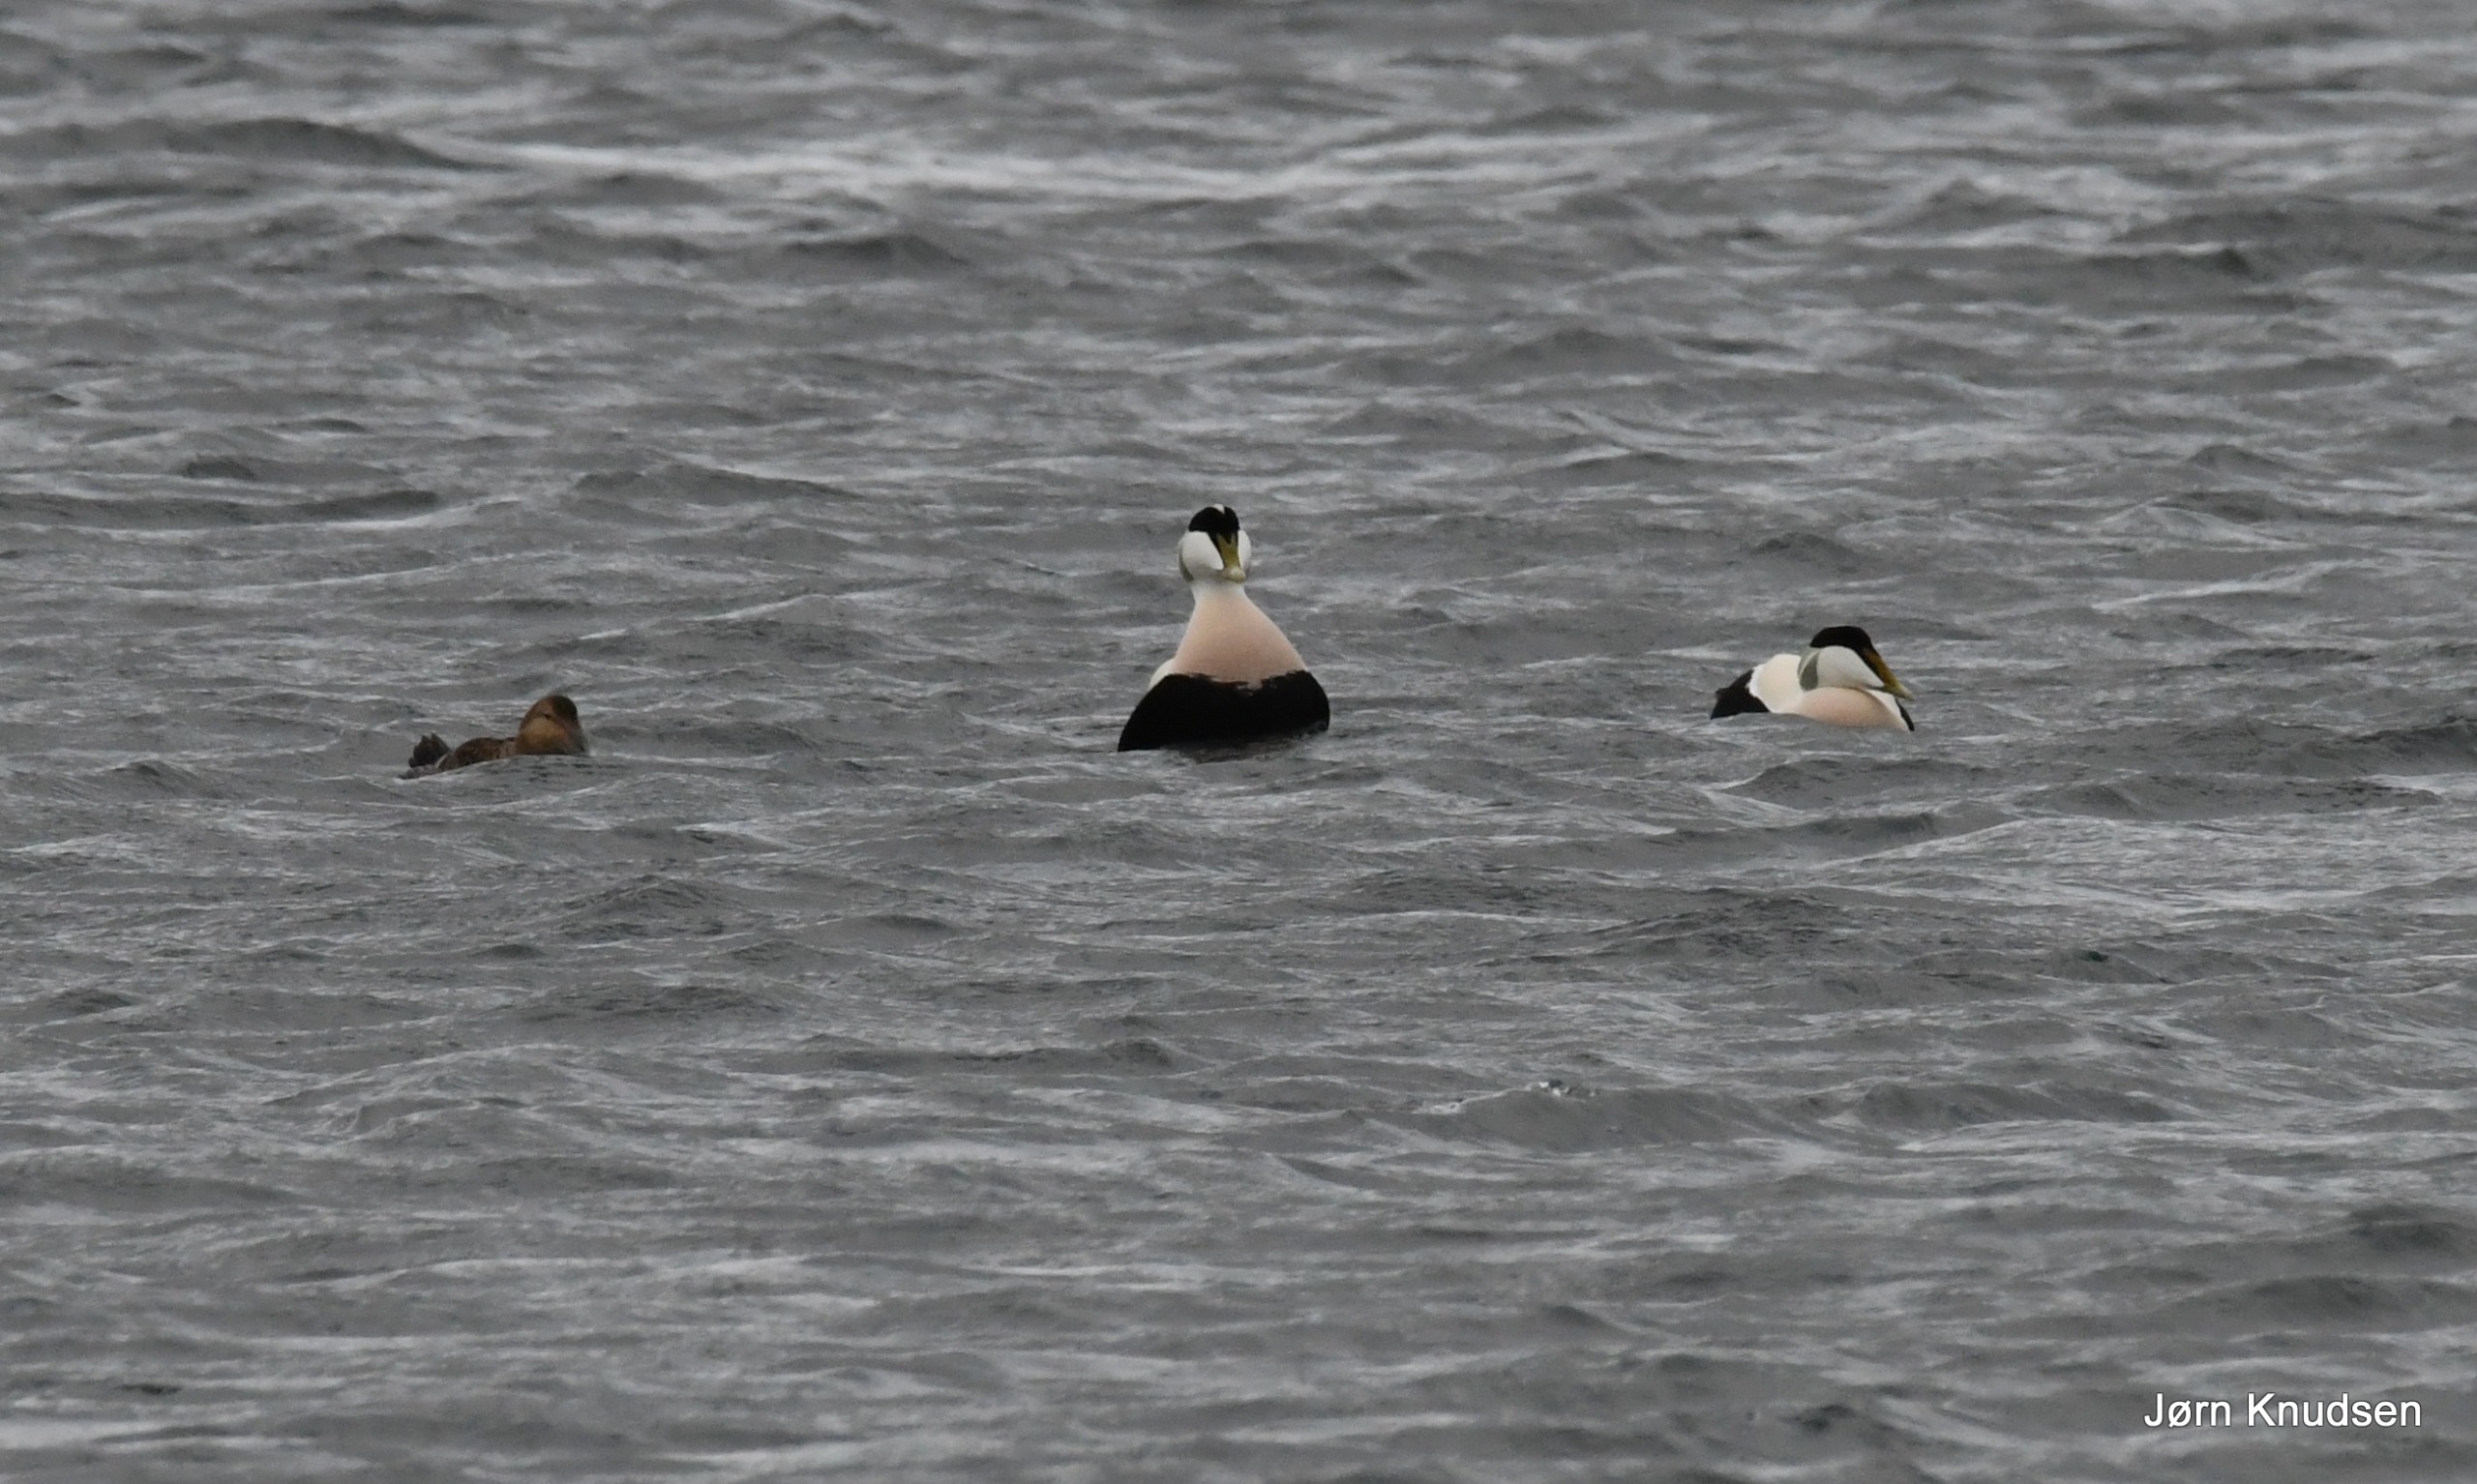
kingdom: Animalia
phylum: Chordata
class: Aves
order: Anseriformes
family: Anatidae
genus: Somateria
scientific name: Somateria mollissima
